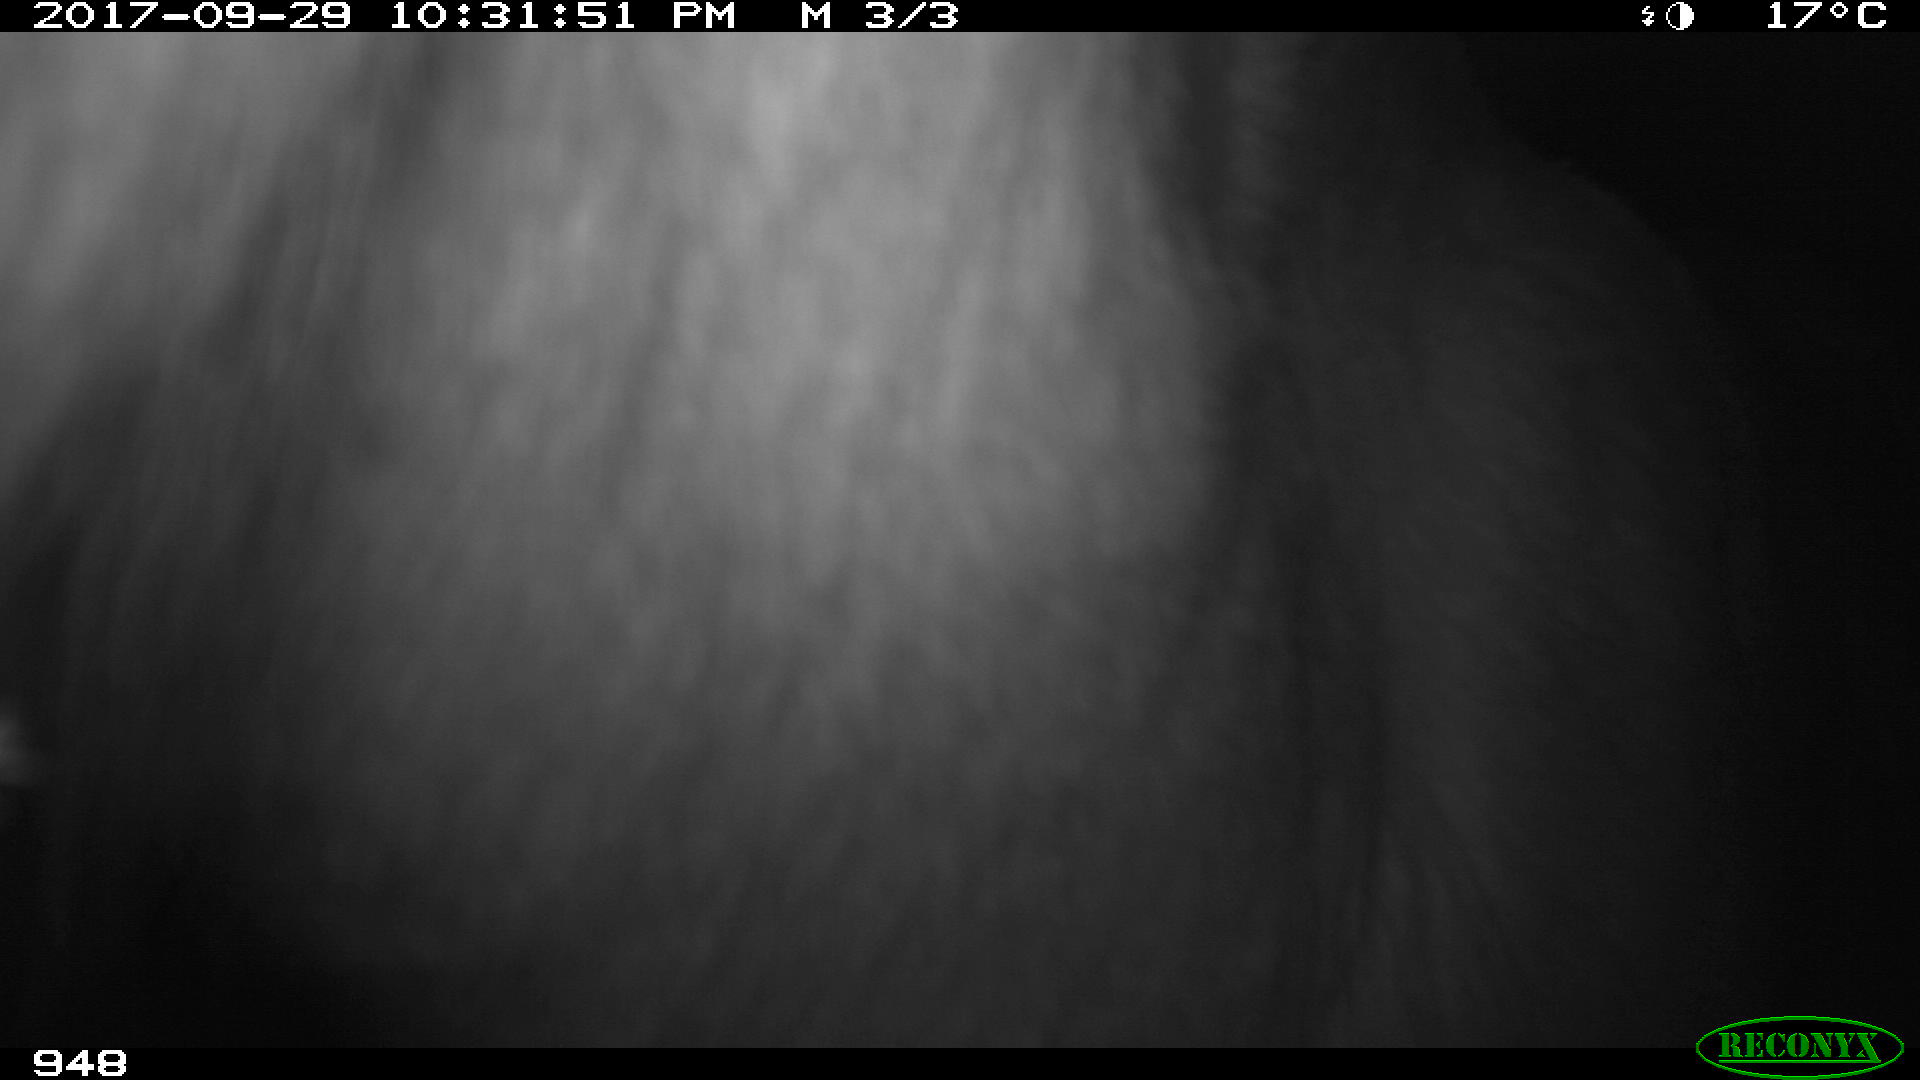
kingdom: Animalia
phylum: Chordata
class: Mammalia
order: Perissodactyla
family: Equidae
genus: Equus
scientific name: Equus caballus
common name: Horse
